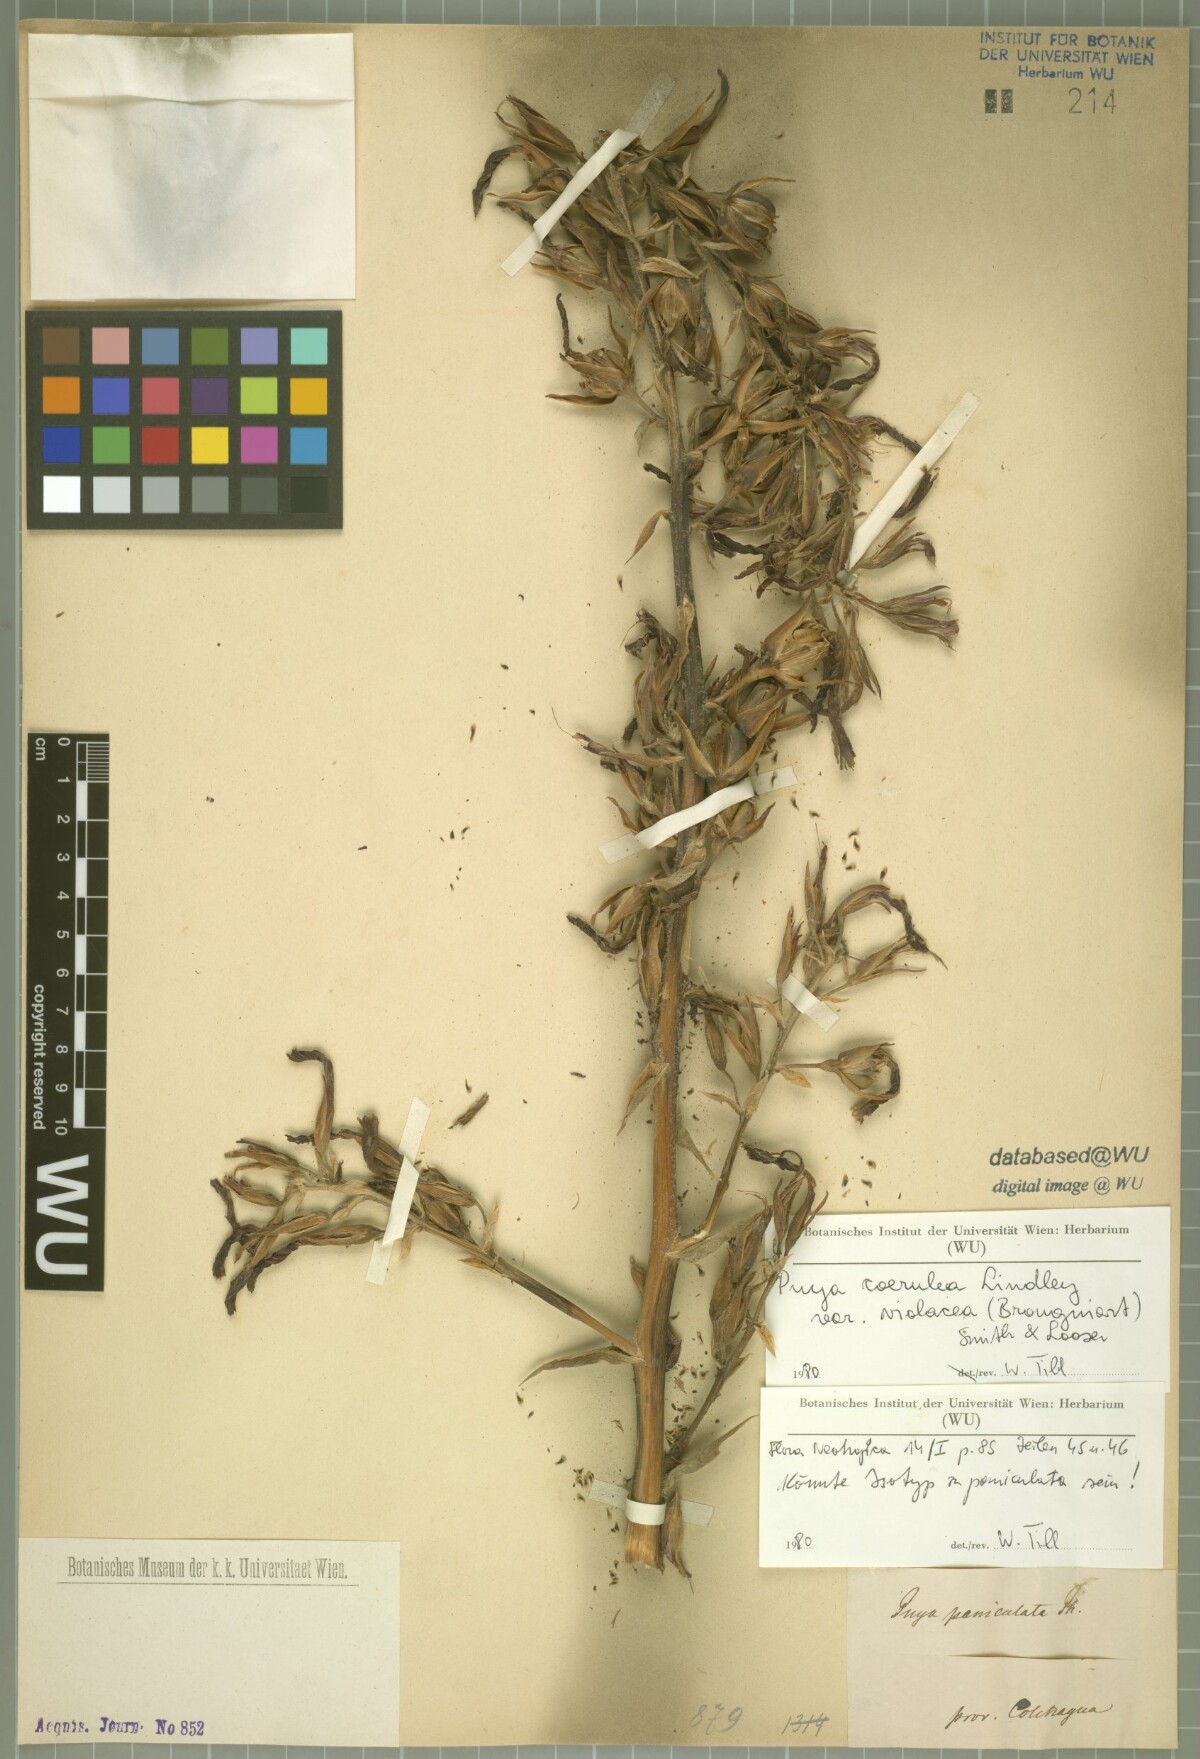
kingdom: Plantae
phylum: Tracheophyta
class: Liliopsida
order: Poales
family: Bromeliaceae
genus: Puya
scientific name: Puya coerulea
